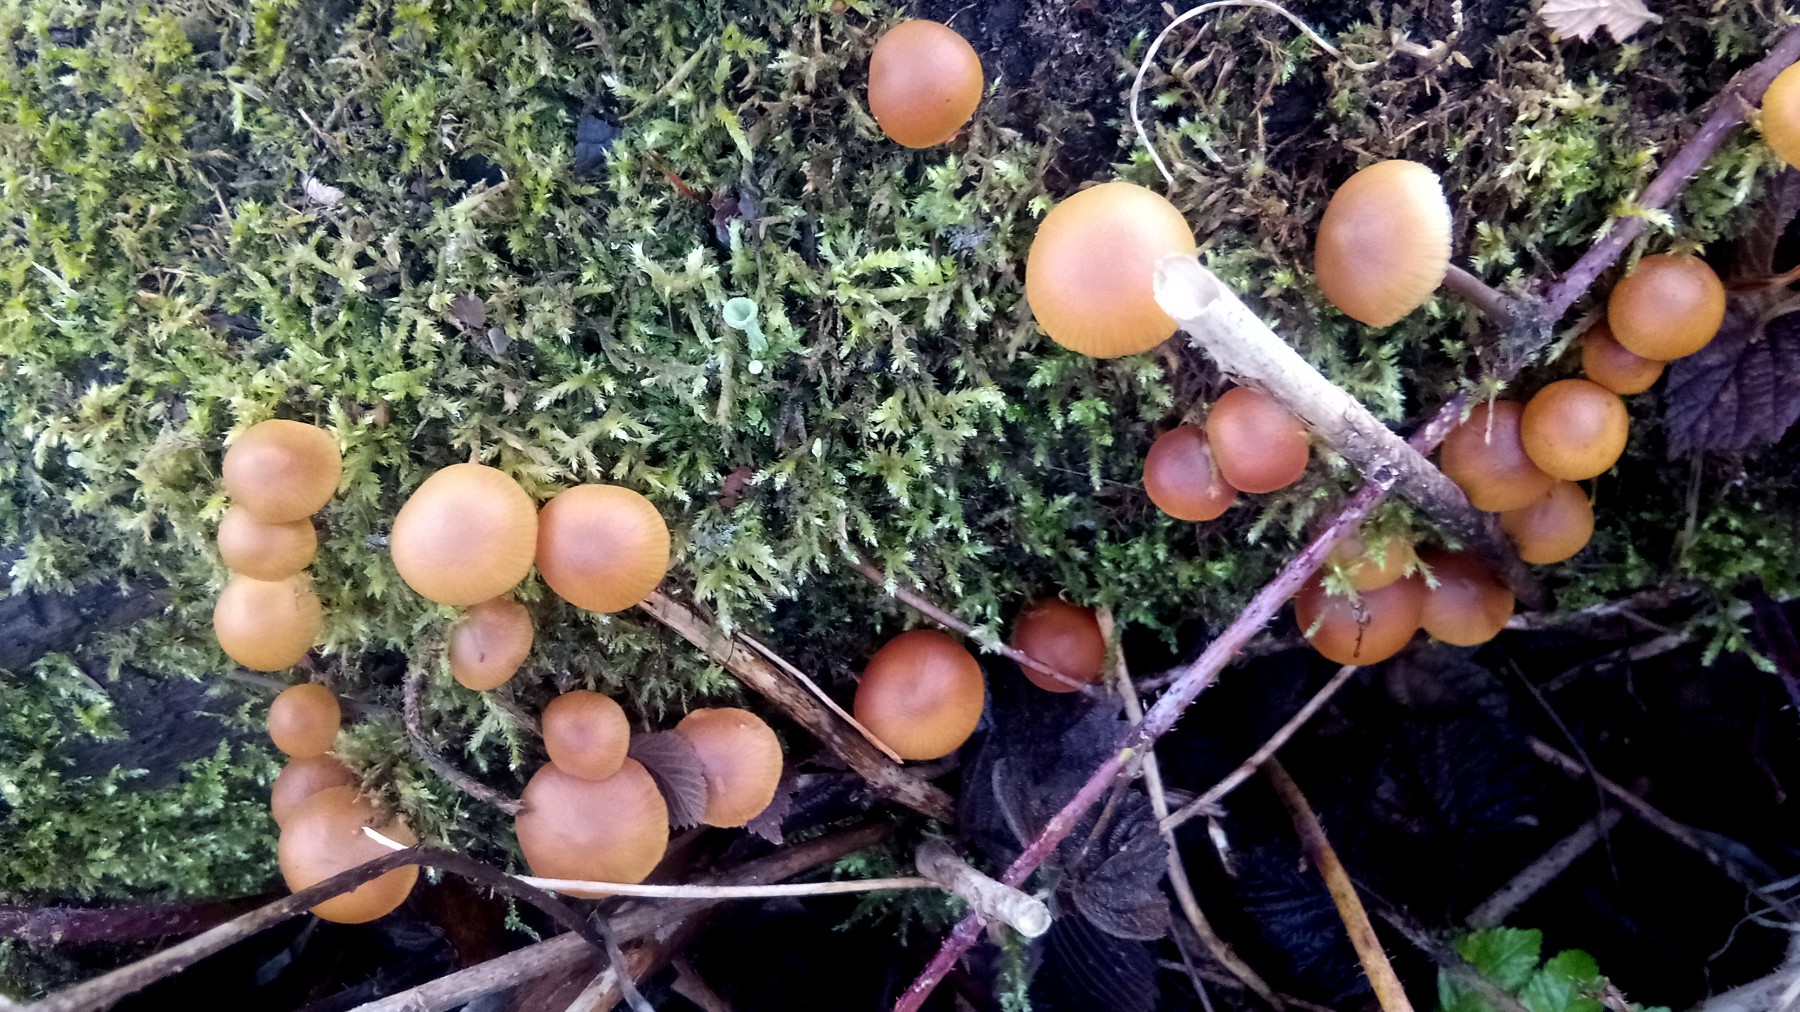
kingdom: Fungi
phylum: Basidiomycota
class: Agaricomycetes
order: Agaricales
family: Hymenogastraceae
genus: Galerina
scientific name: Galerina marginata
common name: randbæltet hjelmhat
